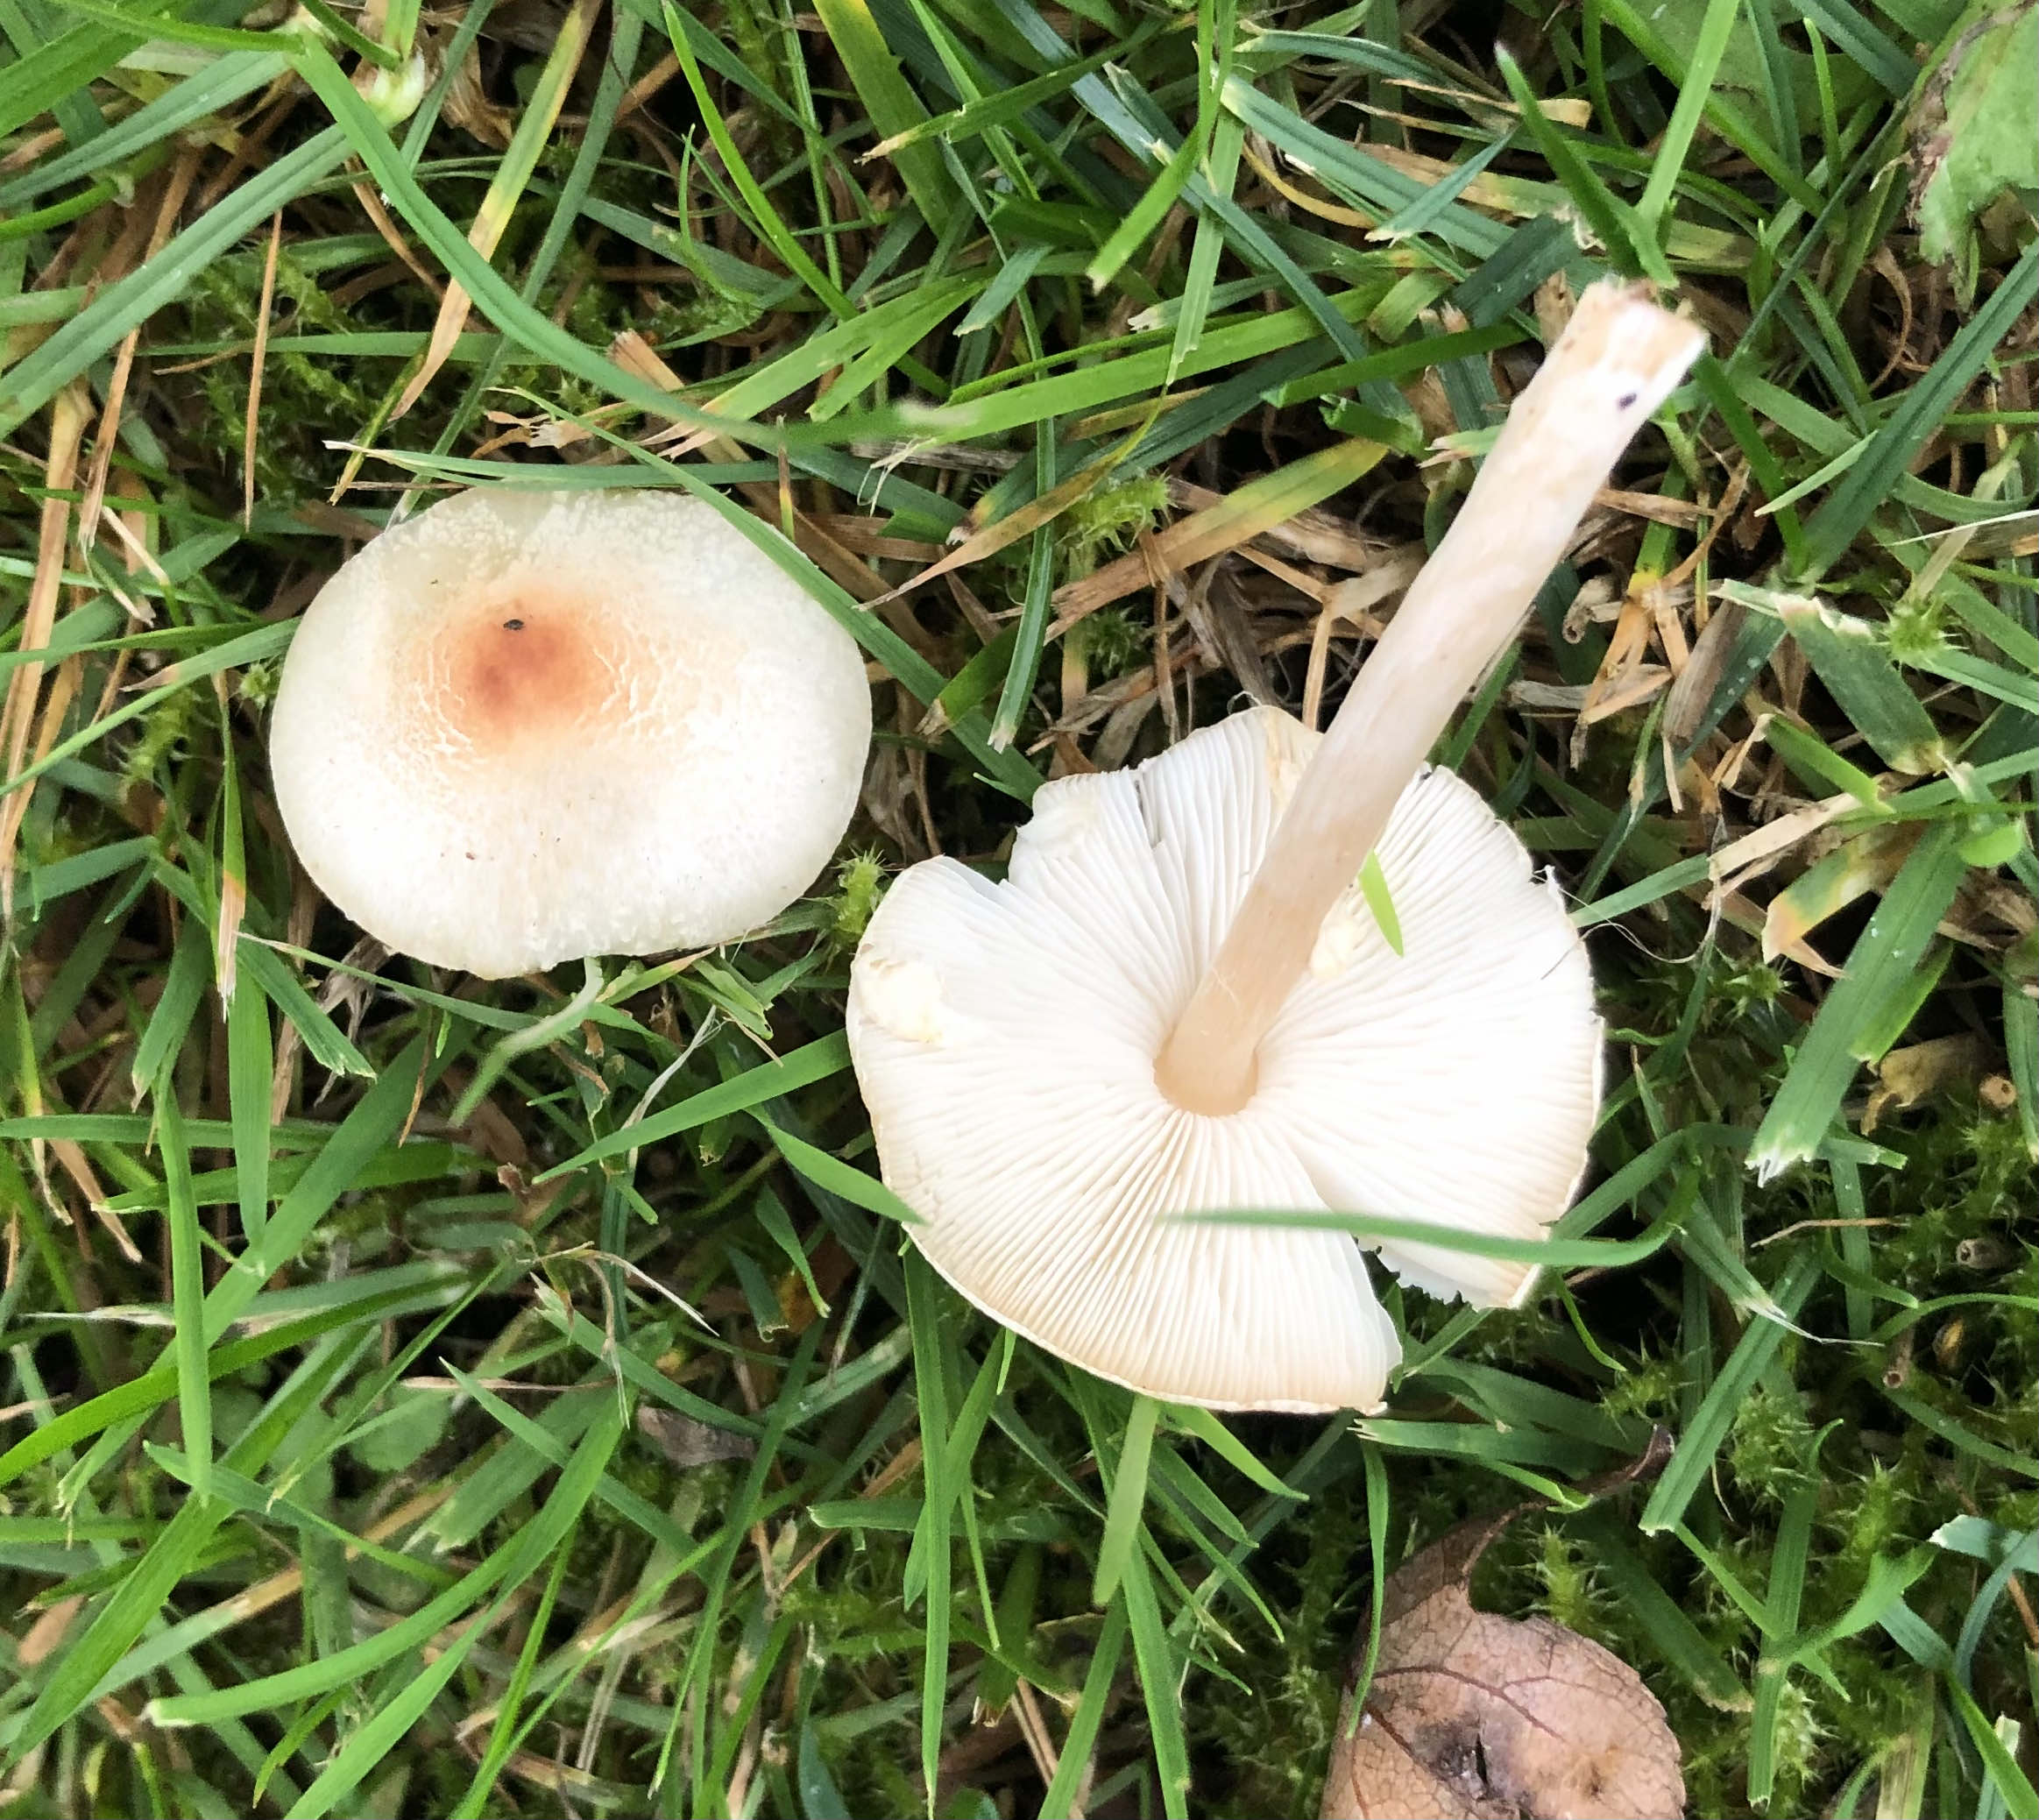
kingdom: Fungi
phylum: Basidiomycota
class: Agaricomycetes
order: Agaricales
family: Agaricaceae
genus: Lepiota
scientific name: Lepiota cristata
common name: stinkende parasolhat
